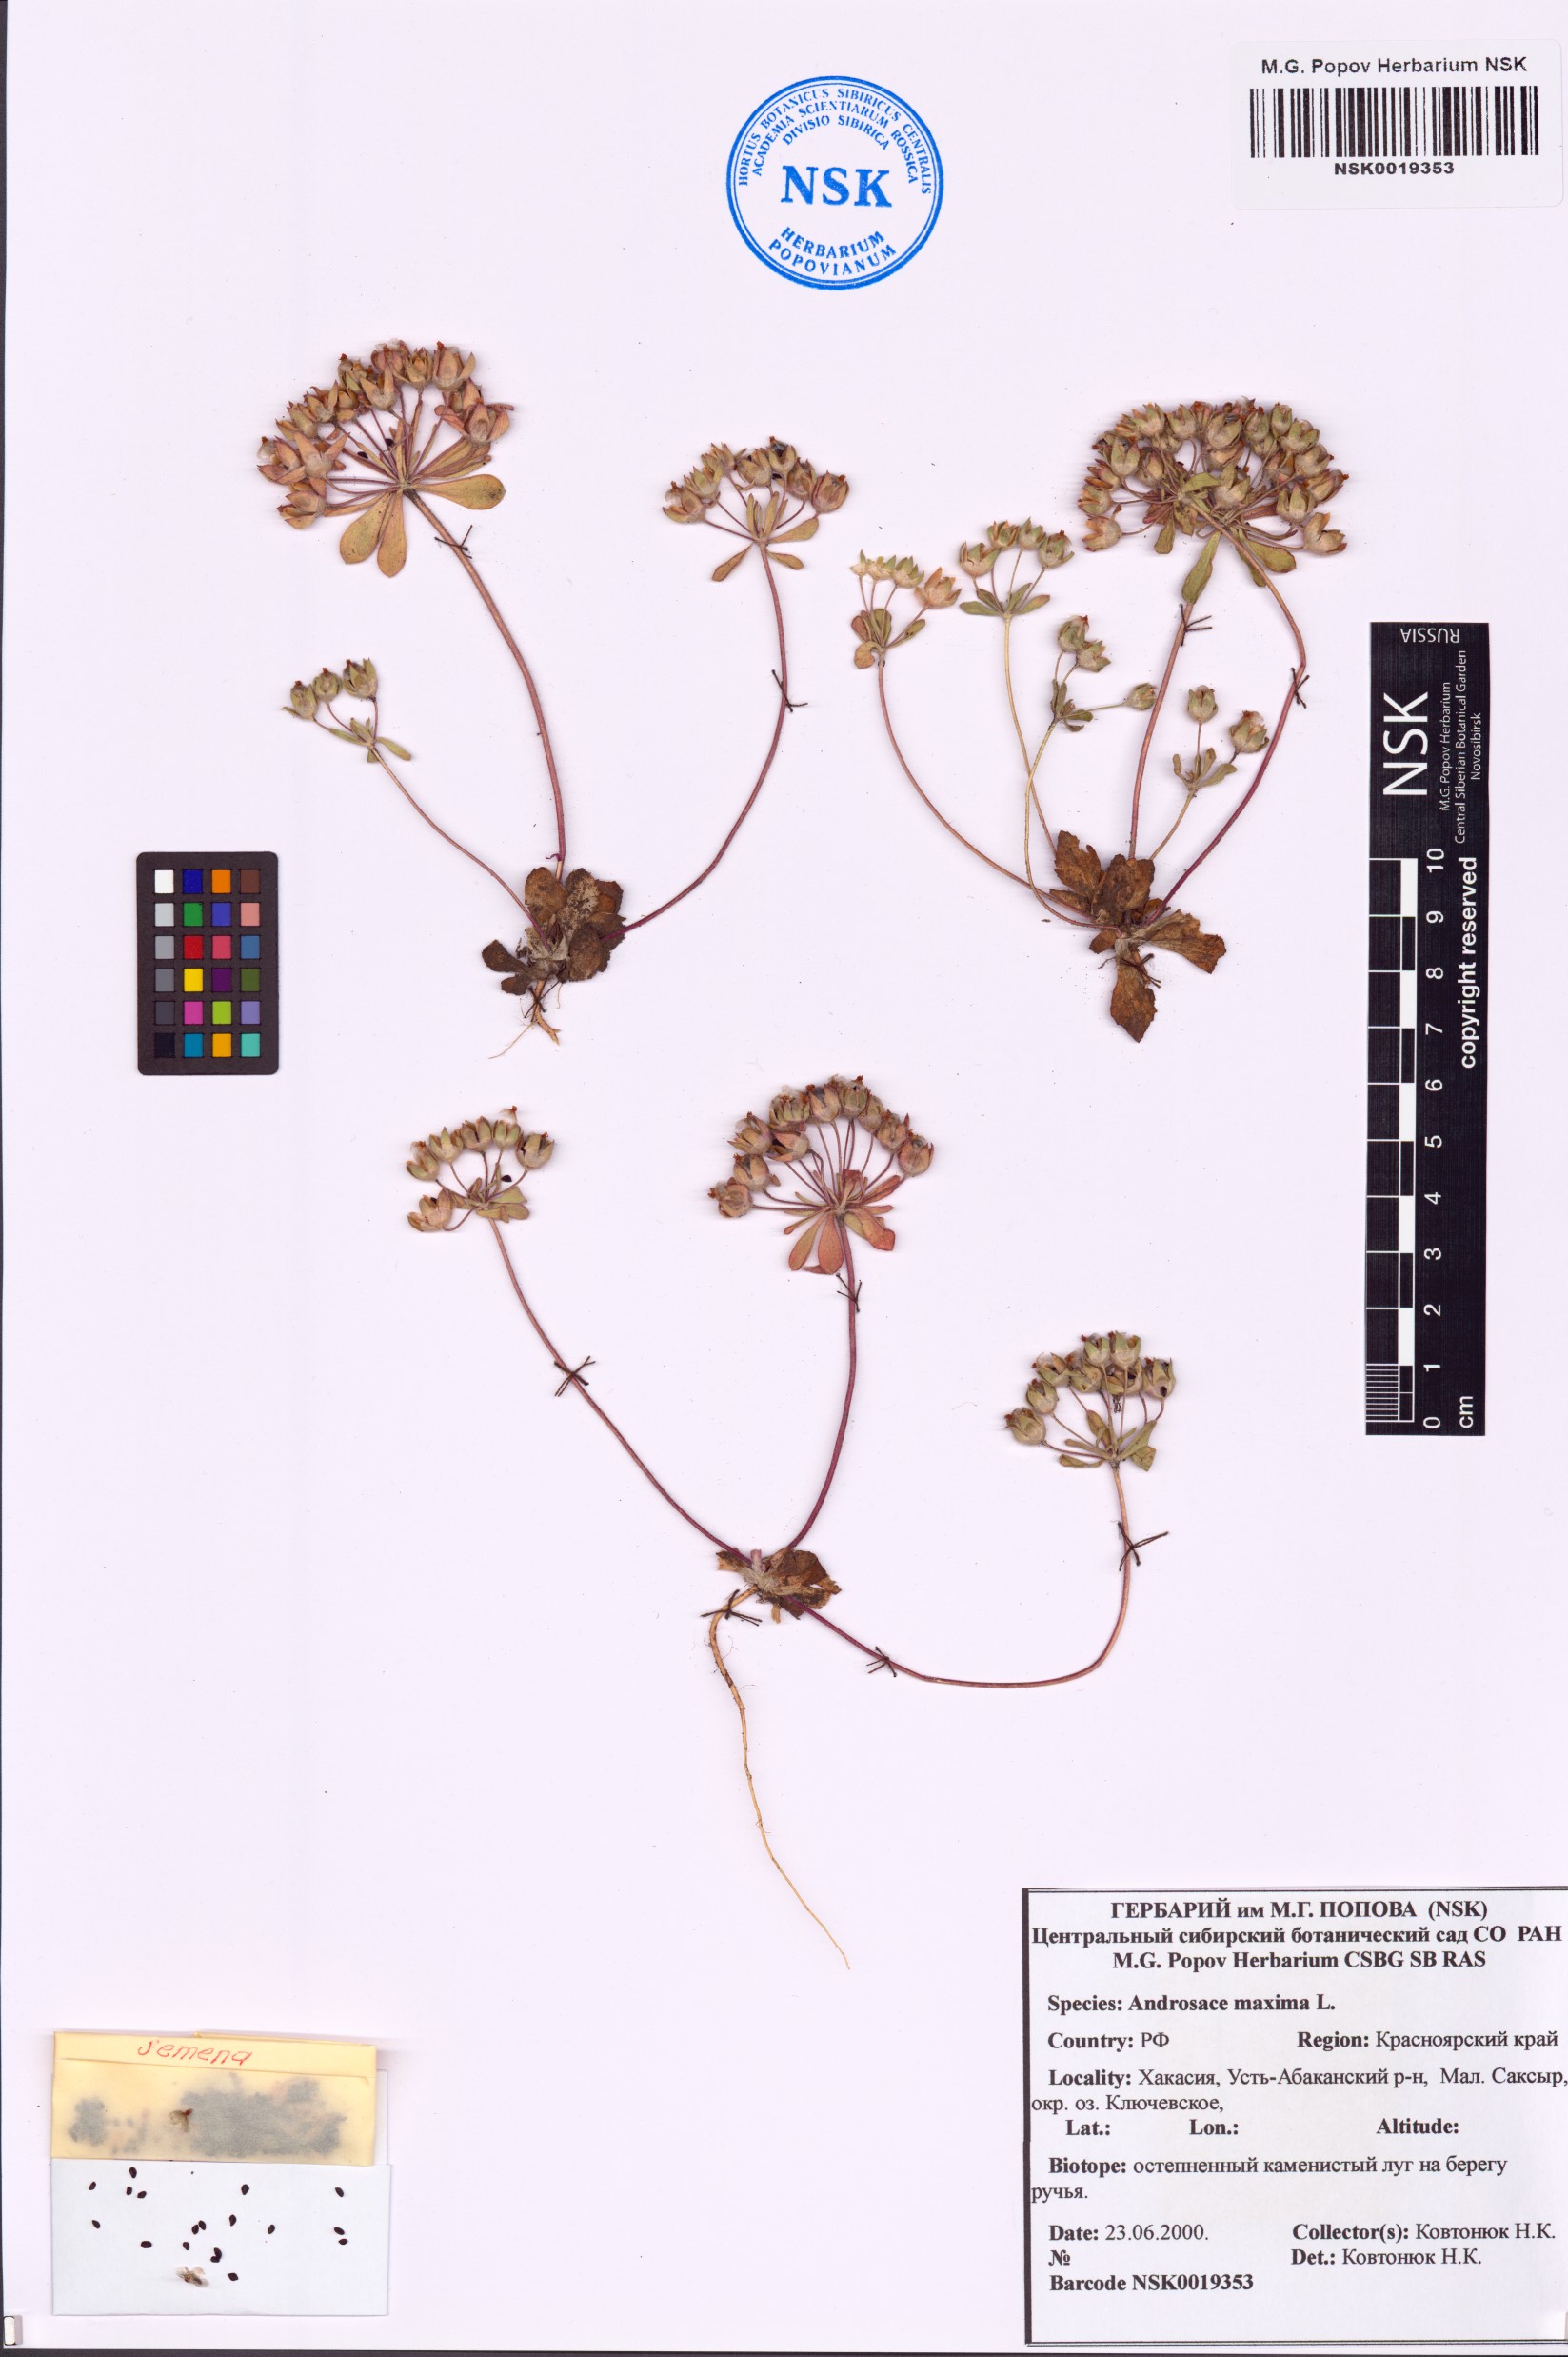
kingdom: Plantae
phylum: Tracheophyta
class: Magnoliopsida
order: Ericales
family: Primulaceae
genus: Androsace
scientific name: Androsace maxima
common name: Annual androsace
